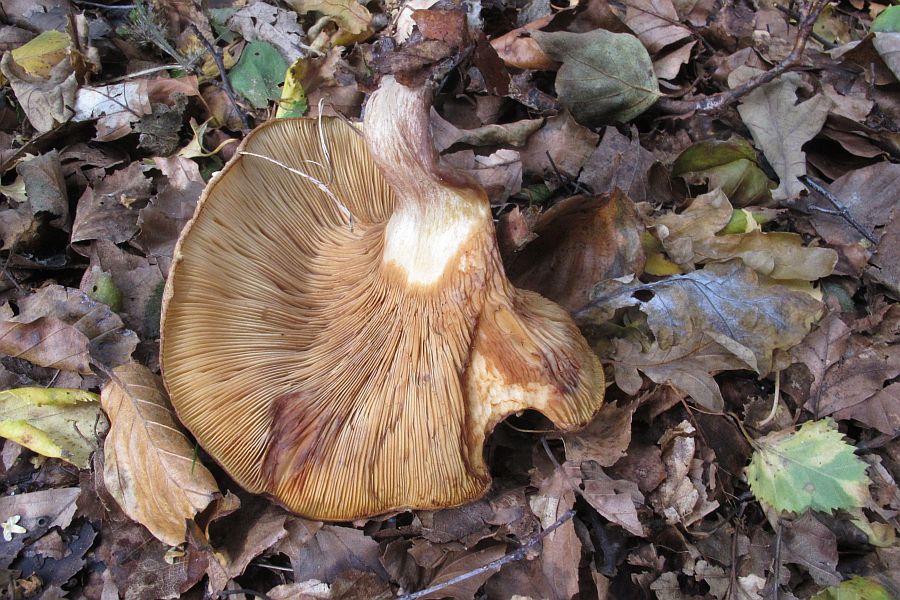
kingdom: Fungi
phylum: Basidiomycota
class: Agaricomycetes
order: Boletales
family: Paxillaceae
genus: Paxillus
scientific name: Paxillus involutus
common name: almindelig netbladhat
